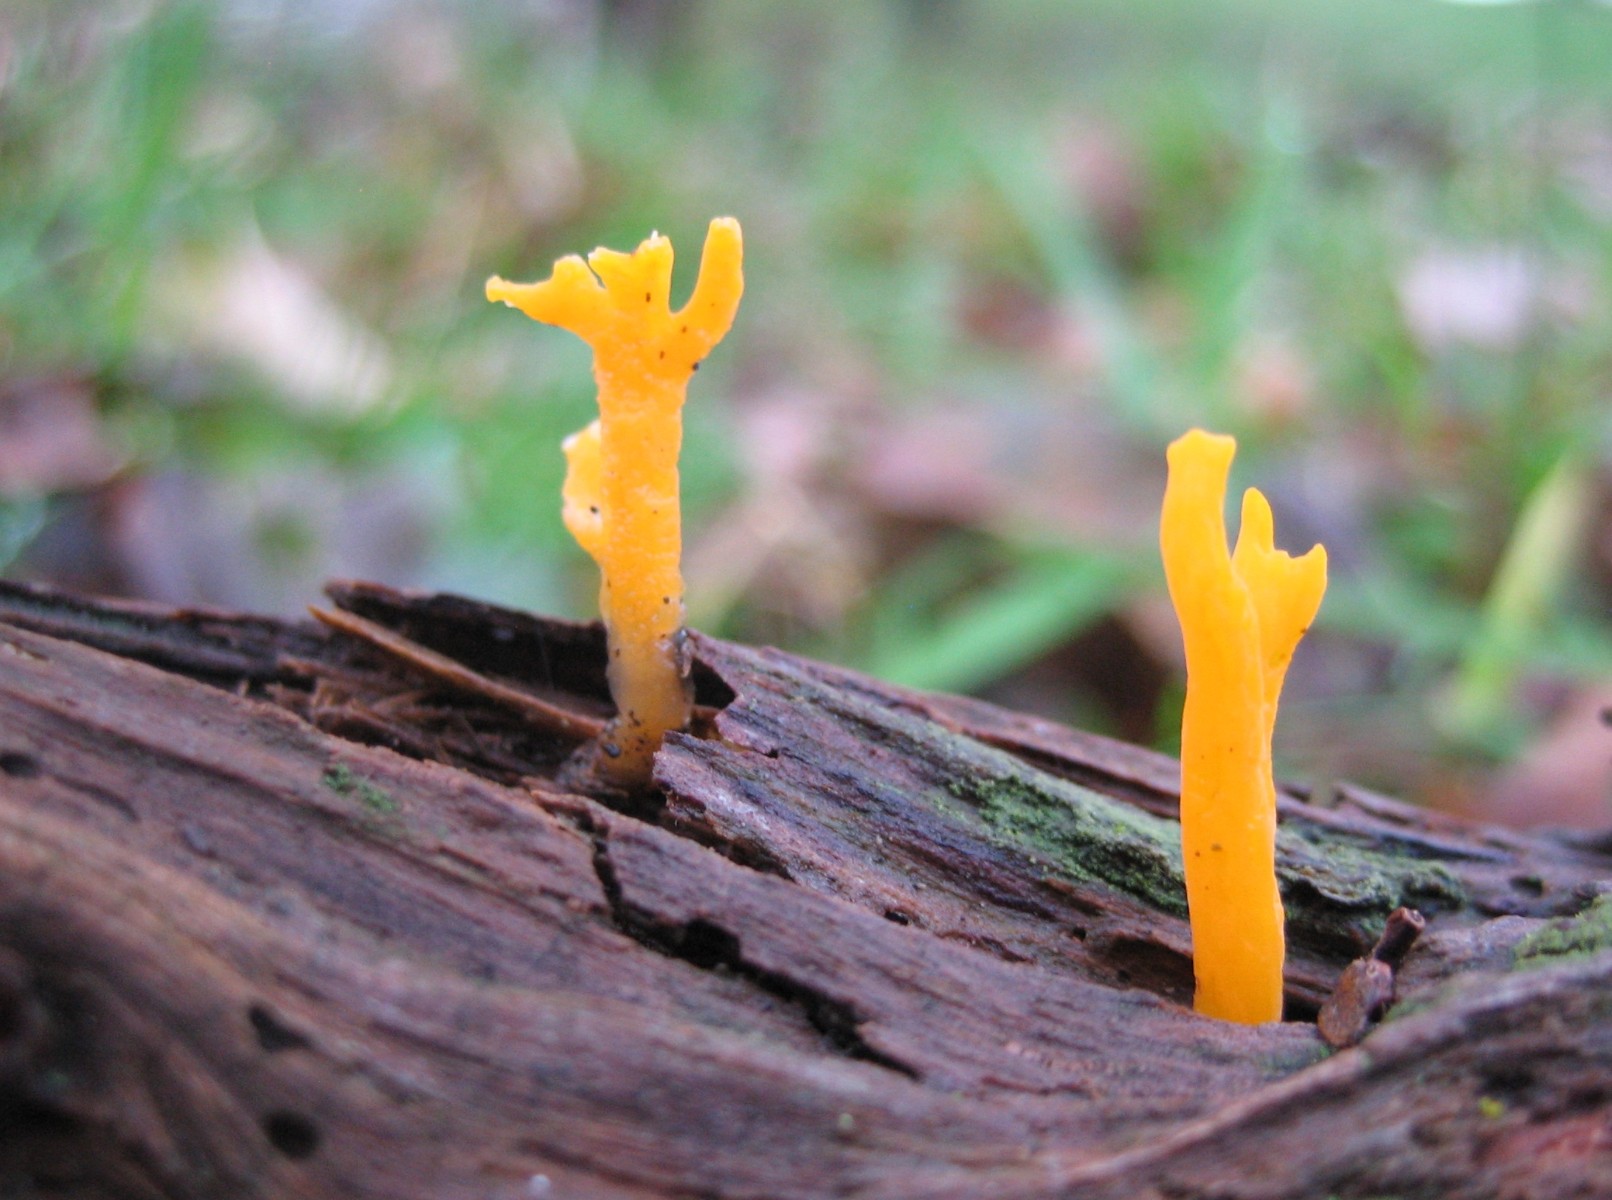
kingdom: Fungi
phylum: Basidiomycota
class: Dacrymycetes
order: Dacrymycetales
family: Dacrymycetaceae
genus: Calocera
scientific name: Calocera viscosa
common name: almindelig guldgaffel
